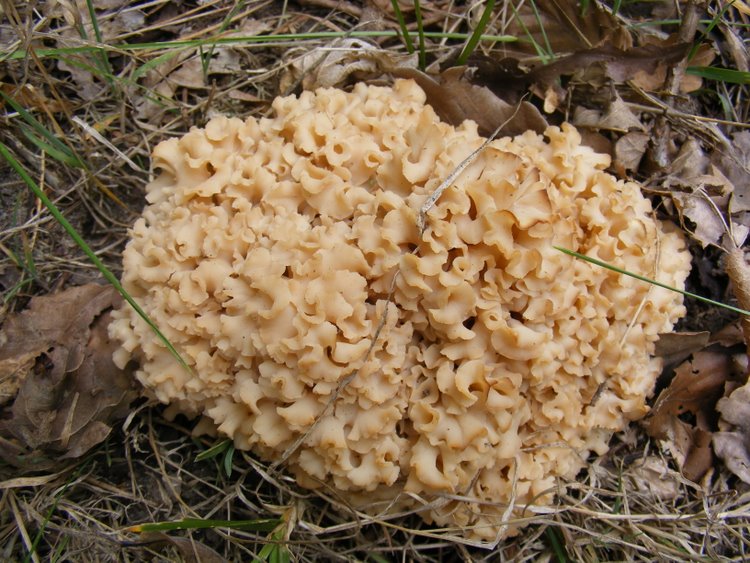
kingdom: Fungi
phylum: Basidiomycota
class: Agaricomycetes
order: Polyporales
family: Sparassidaceae
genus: Sparassis
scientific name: Sparassis crispa
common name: kruset blomkålssvamp
